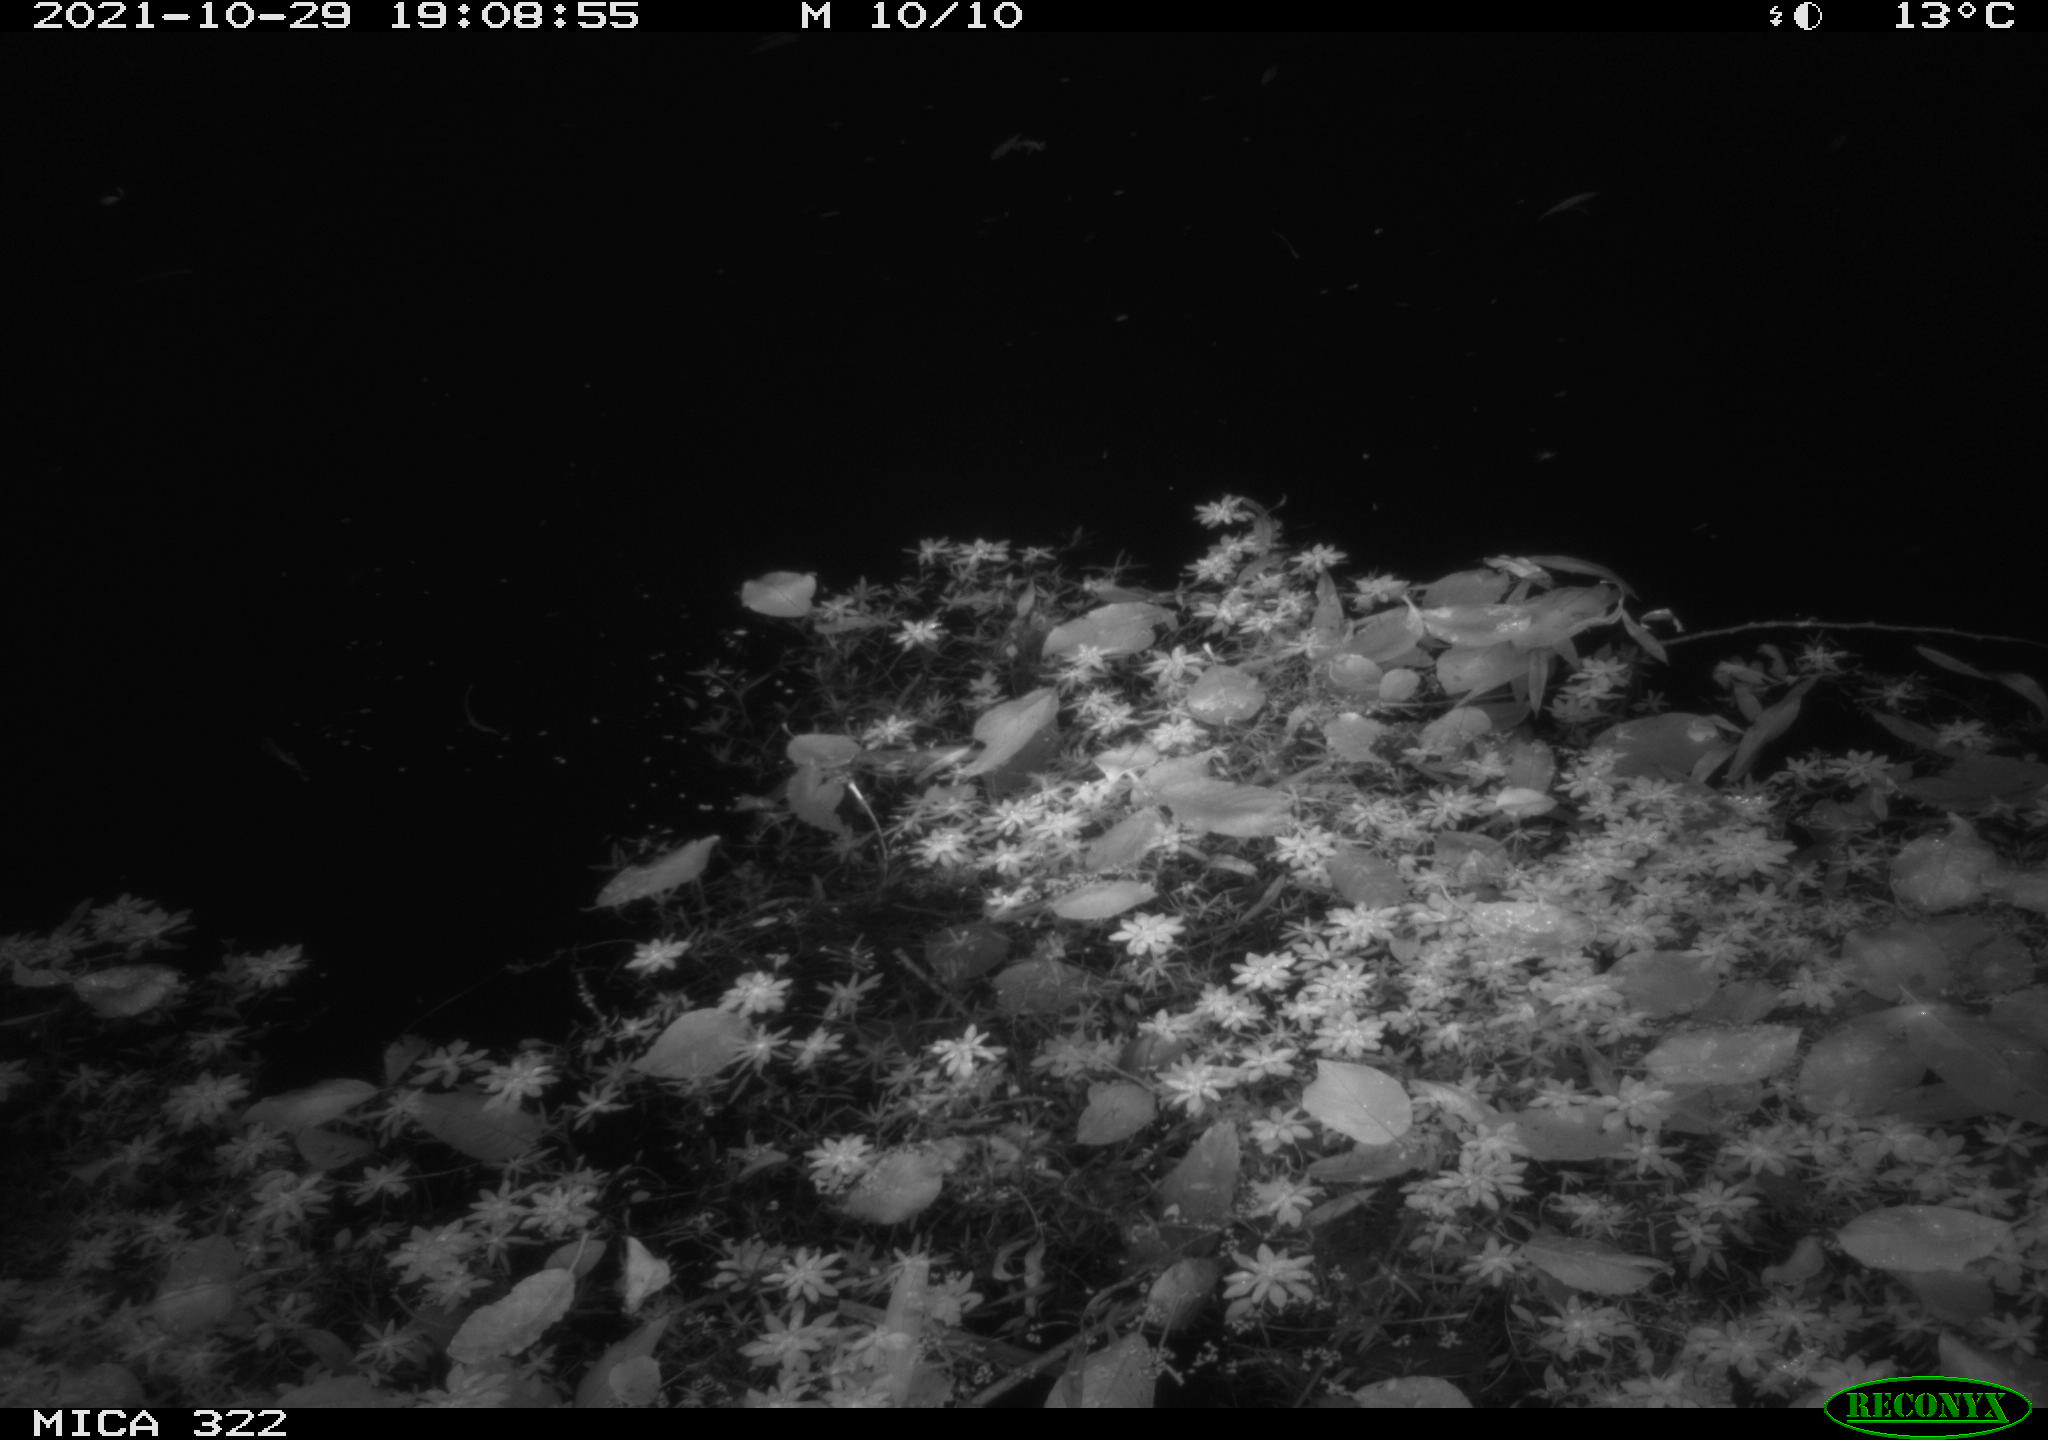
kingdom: Animalia
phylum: Chordata
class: Mammalia
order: Rodentia
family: Muridae
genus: Rattus
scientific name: Rattus norvegicus
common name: Brown rat
